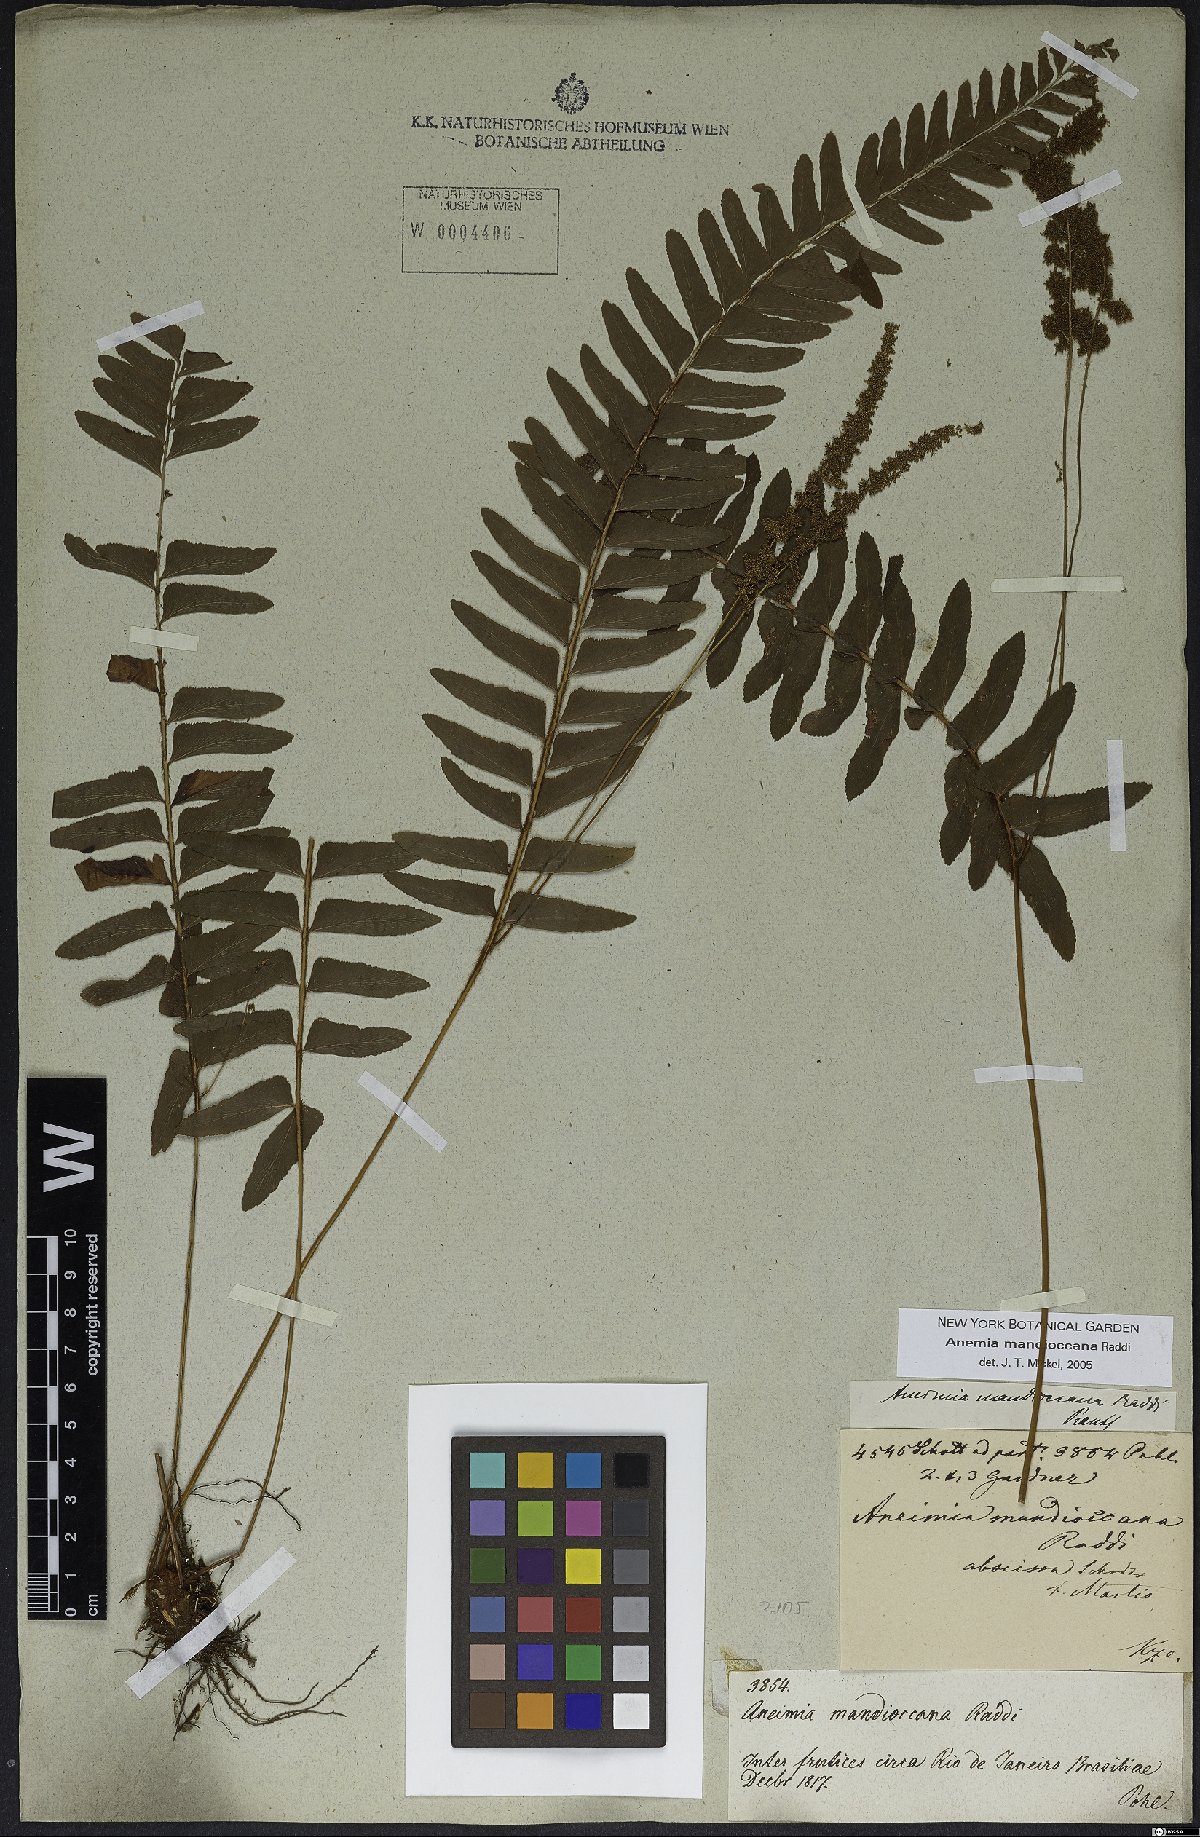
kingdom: Plantae
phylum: Tracheophyta
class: Polypodiopsida
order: Schizaeales
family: Anemiaceae
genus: Anemia
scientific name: Anemia mandiocana
